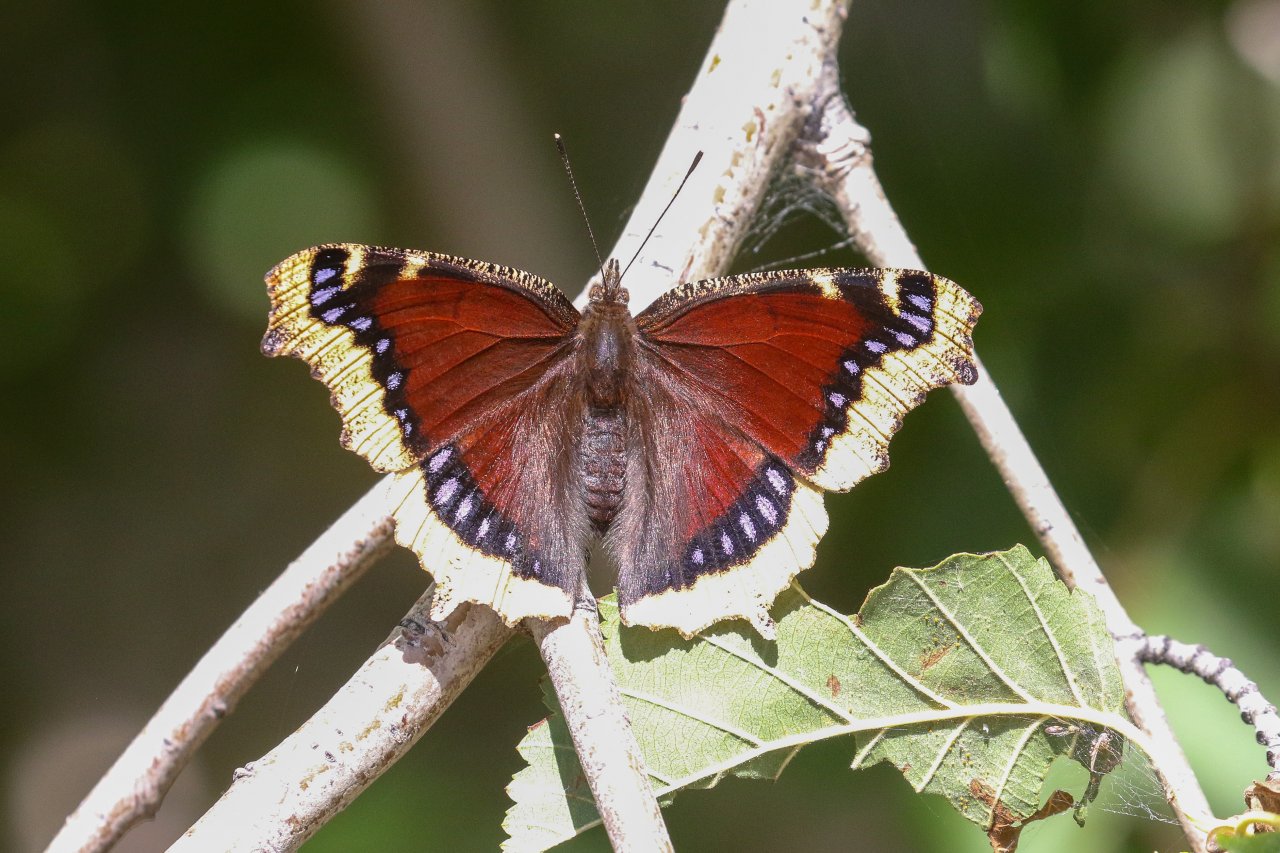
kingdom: Animalia
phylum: Arthropoda
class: Insecta
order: Lepidoptera
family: Nymphalidae
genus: Nymphalis
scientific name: Nymphalis antiopa
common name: Mourning Cloak
